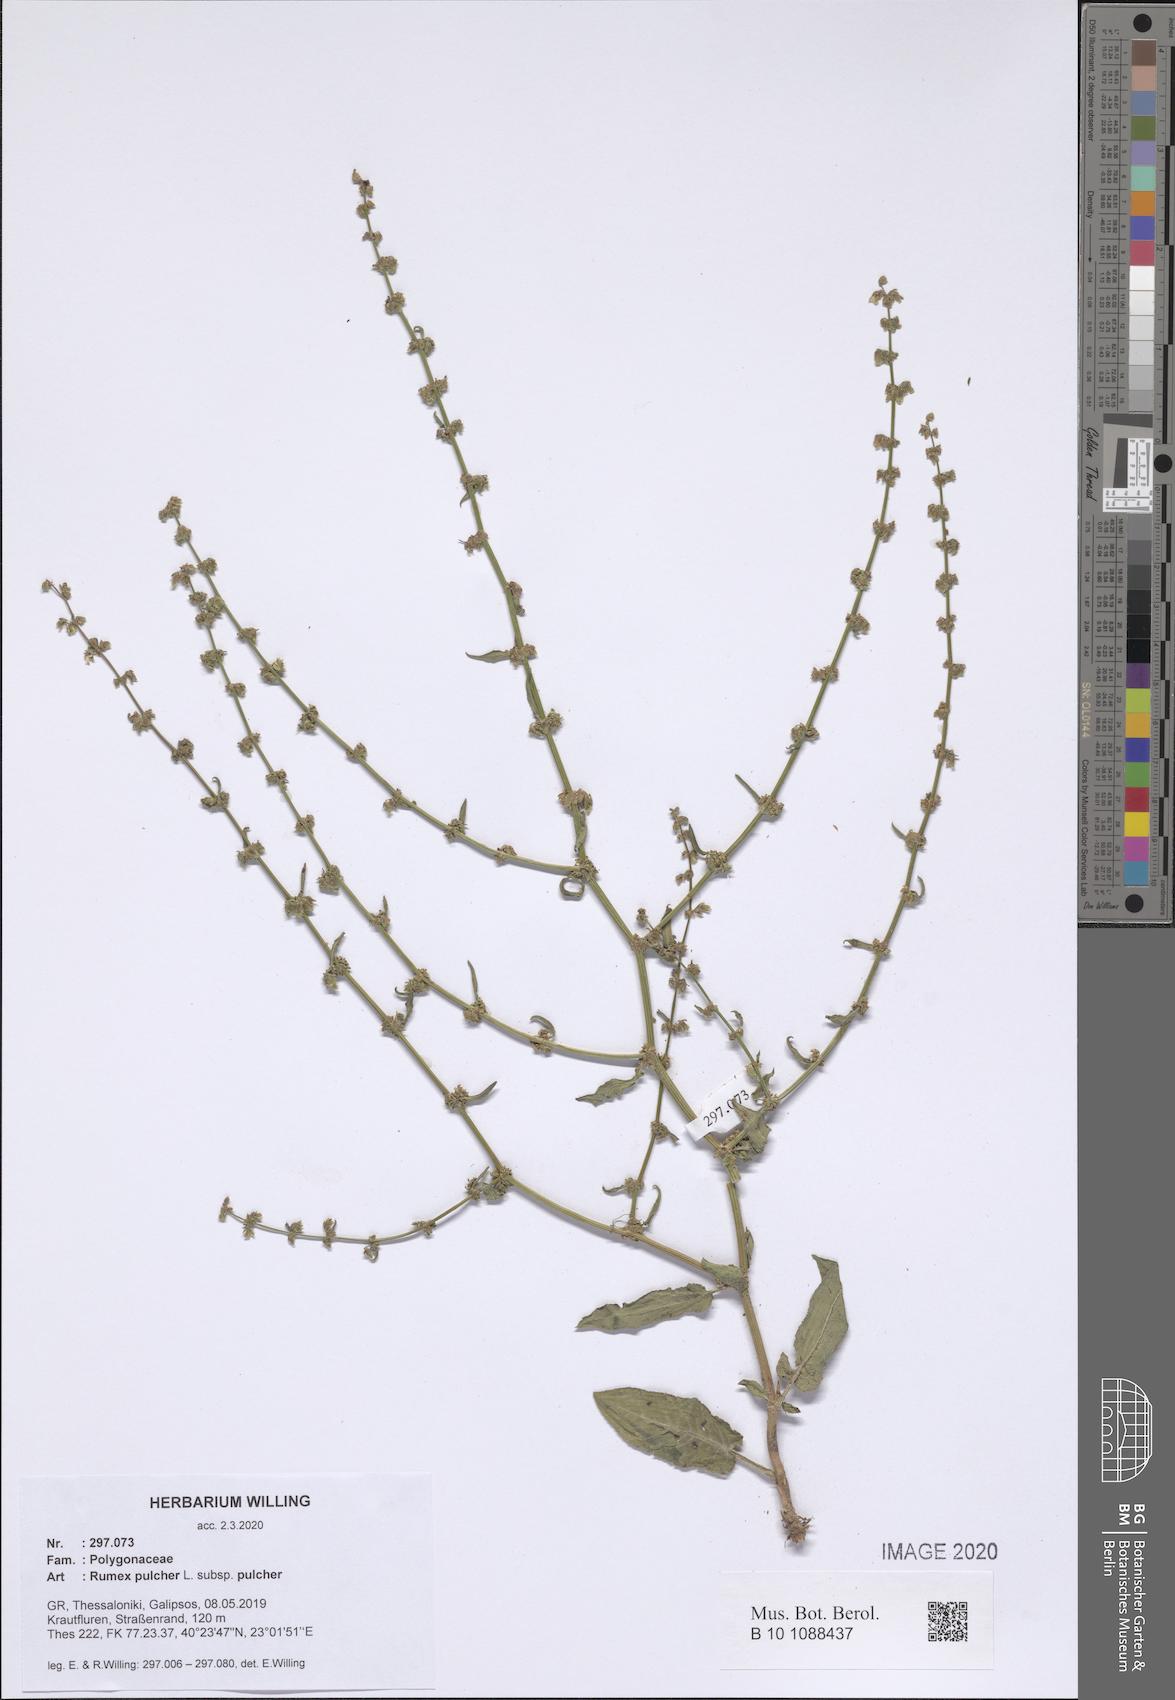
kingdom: Plantae
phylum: Tracheophyta
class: Magnoliopsida
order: Caryophyllales
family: Polygonaceae
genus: Rumex
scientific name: Rumex pulcher
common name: Fiddle dock
